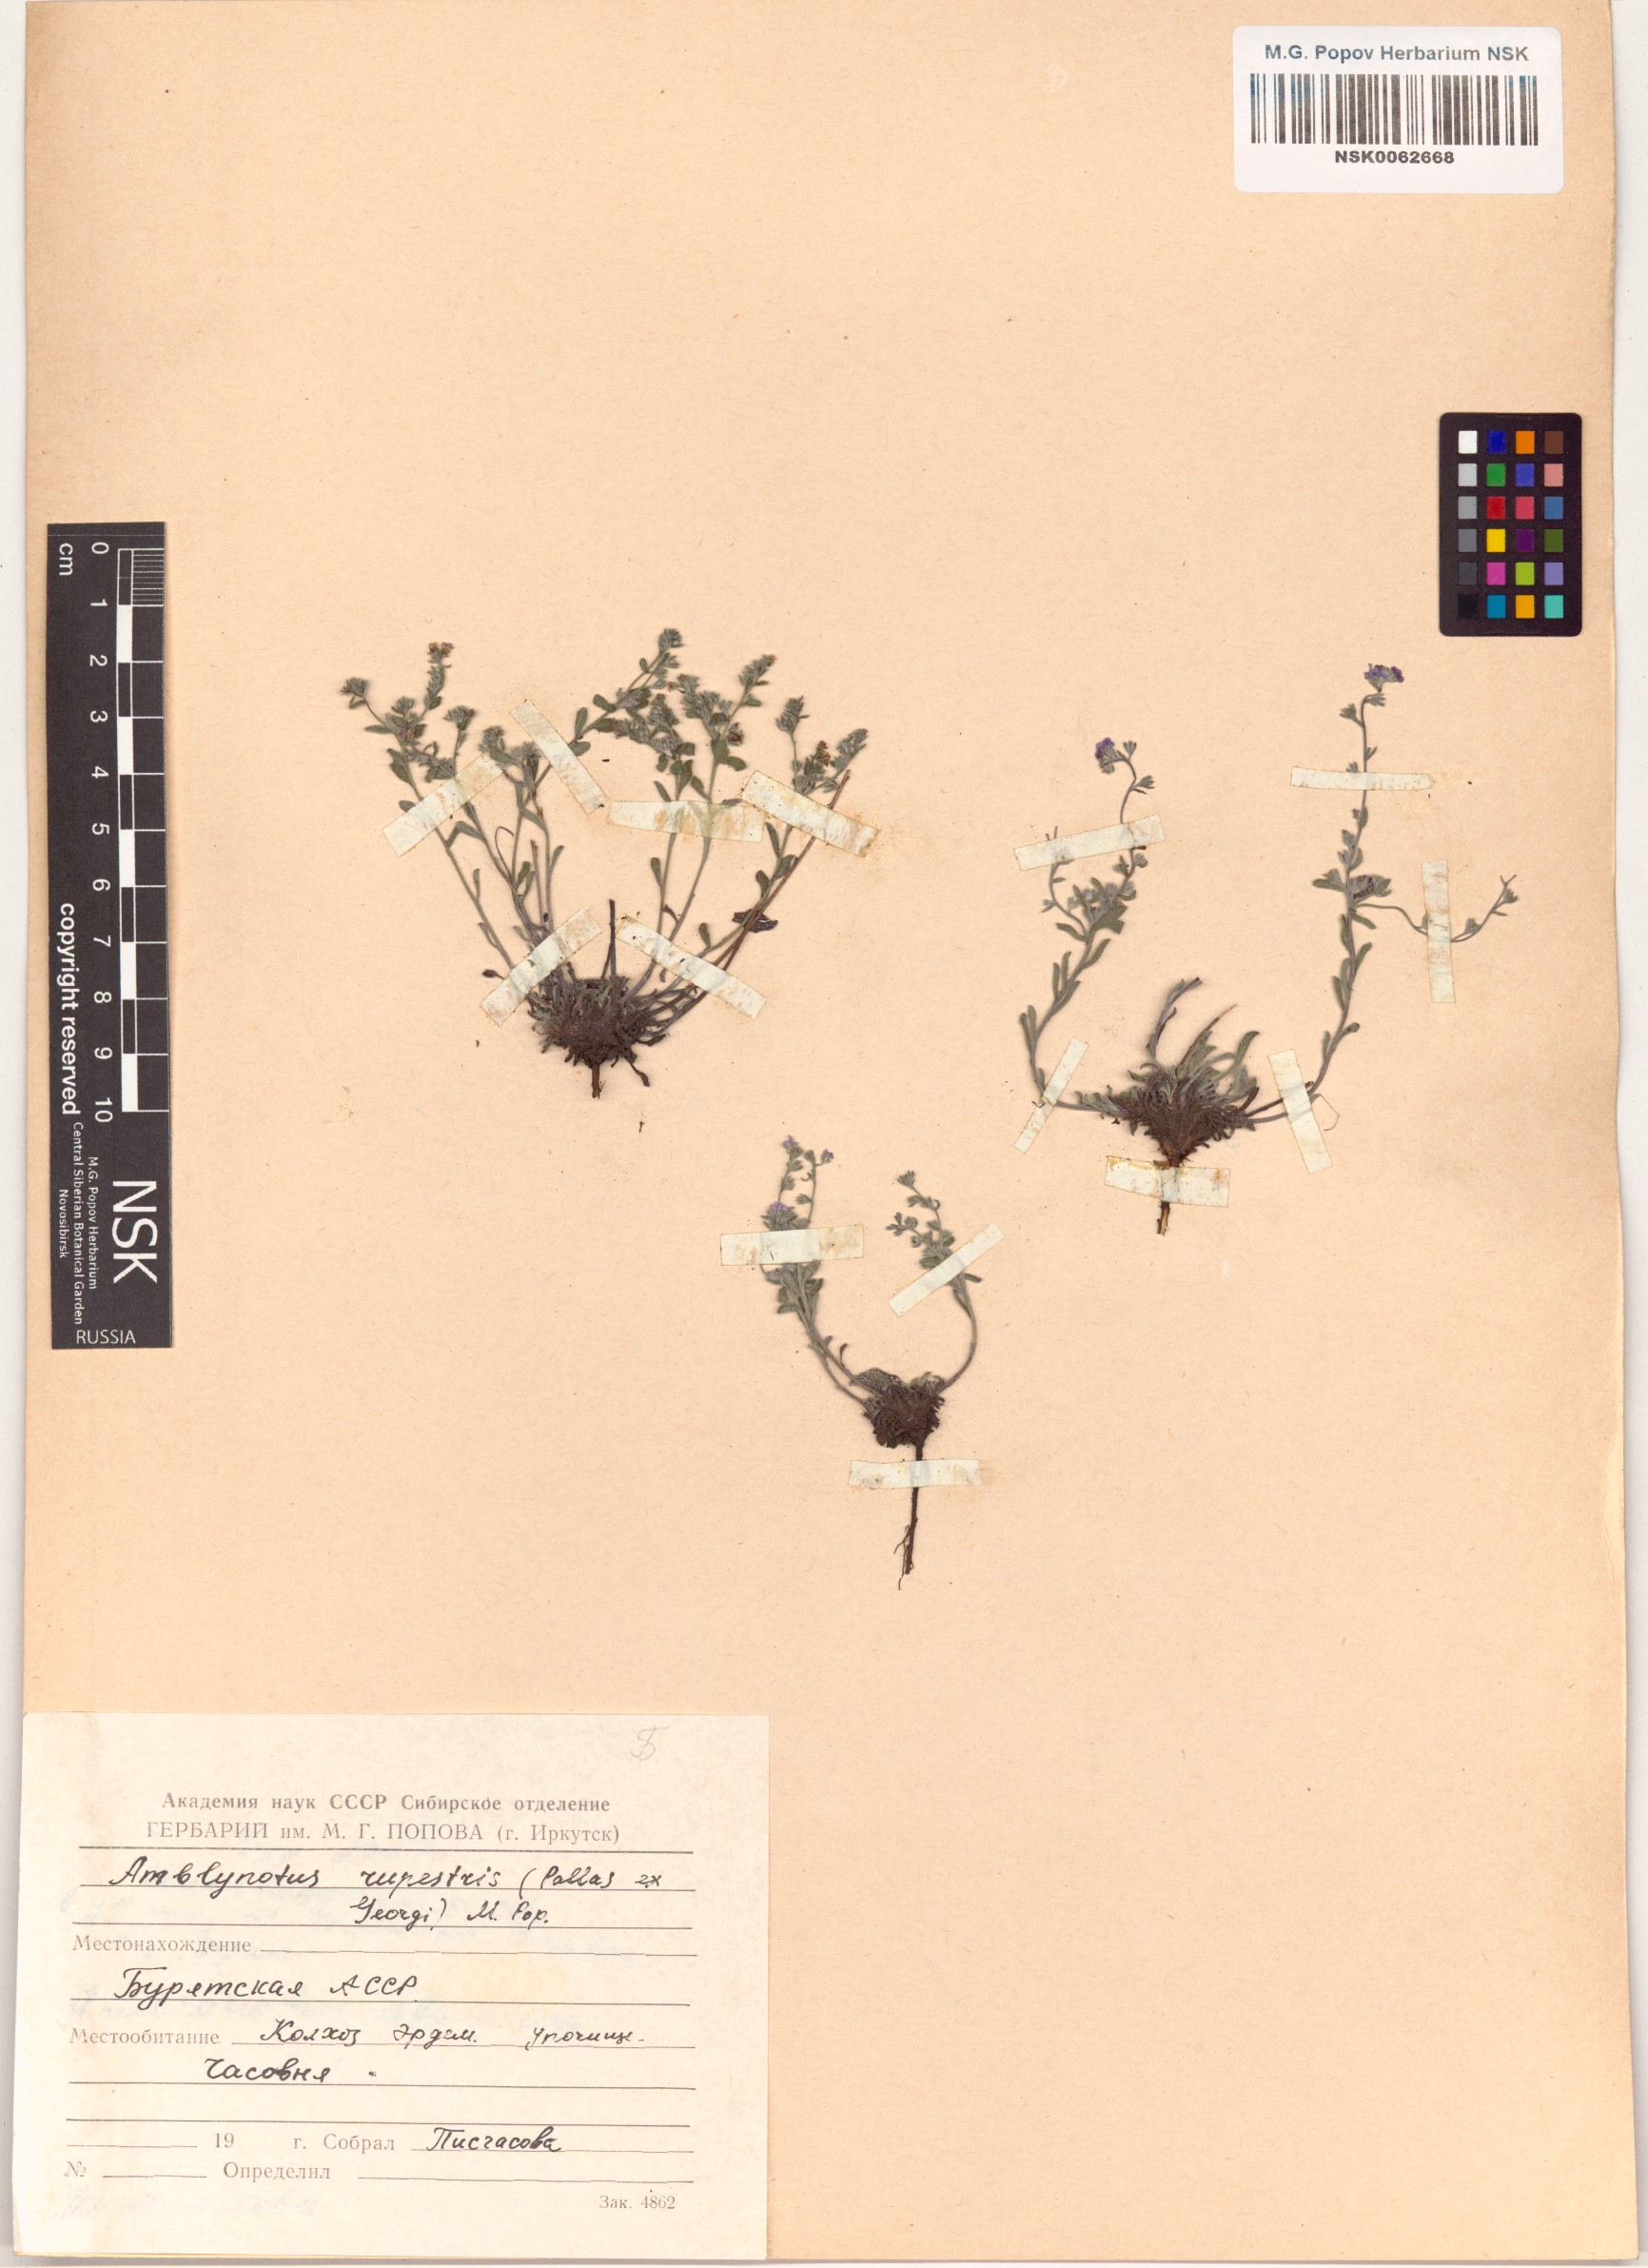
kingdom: Plantae
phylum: Tracheophyta
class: Magnoliopsida
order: Boraginales
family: Boraginaceae
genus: Eritrichium
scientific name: Eritrichium rupestre
